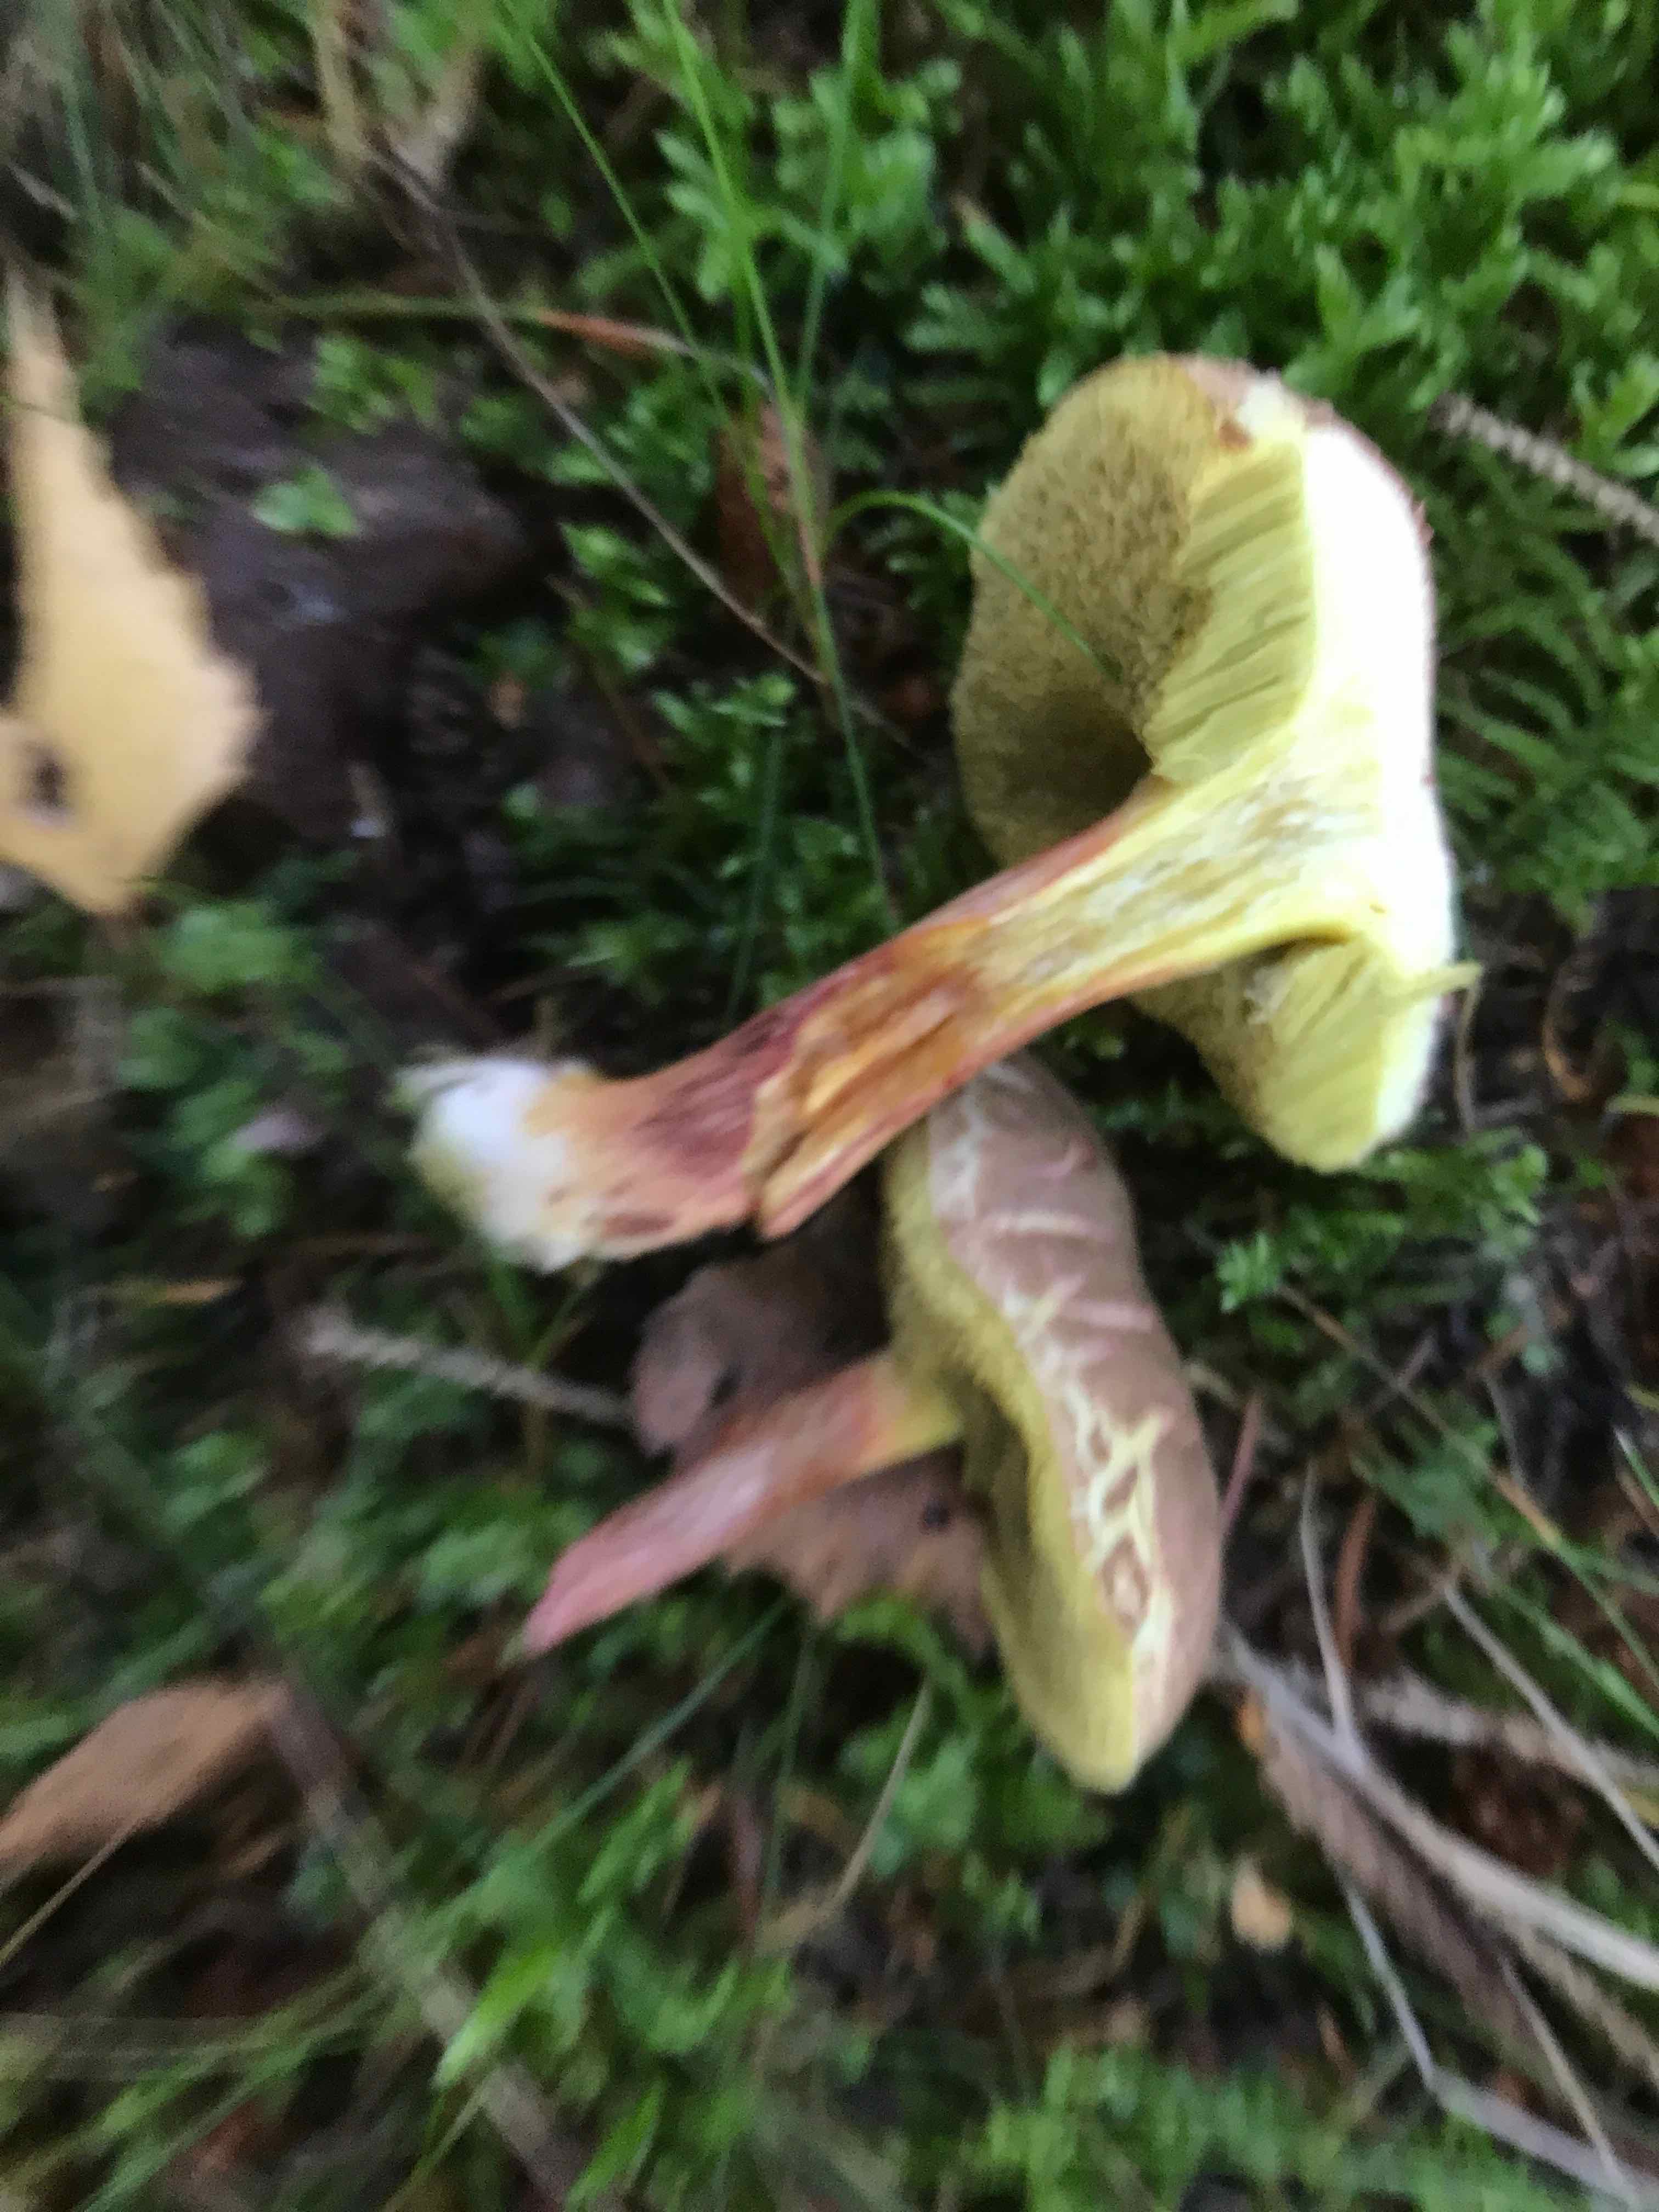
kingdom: Fungi
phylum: Basidiomycota
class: Agaricomycetes
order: Boletales
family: Boletaceae
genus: Xerocomellus
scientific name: Xerocomellus chrysenteron
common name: rødsprukken rørhat
